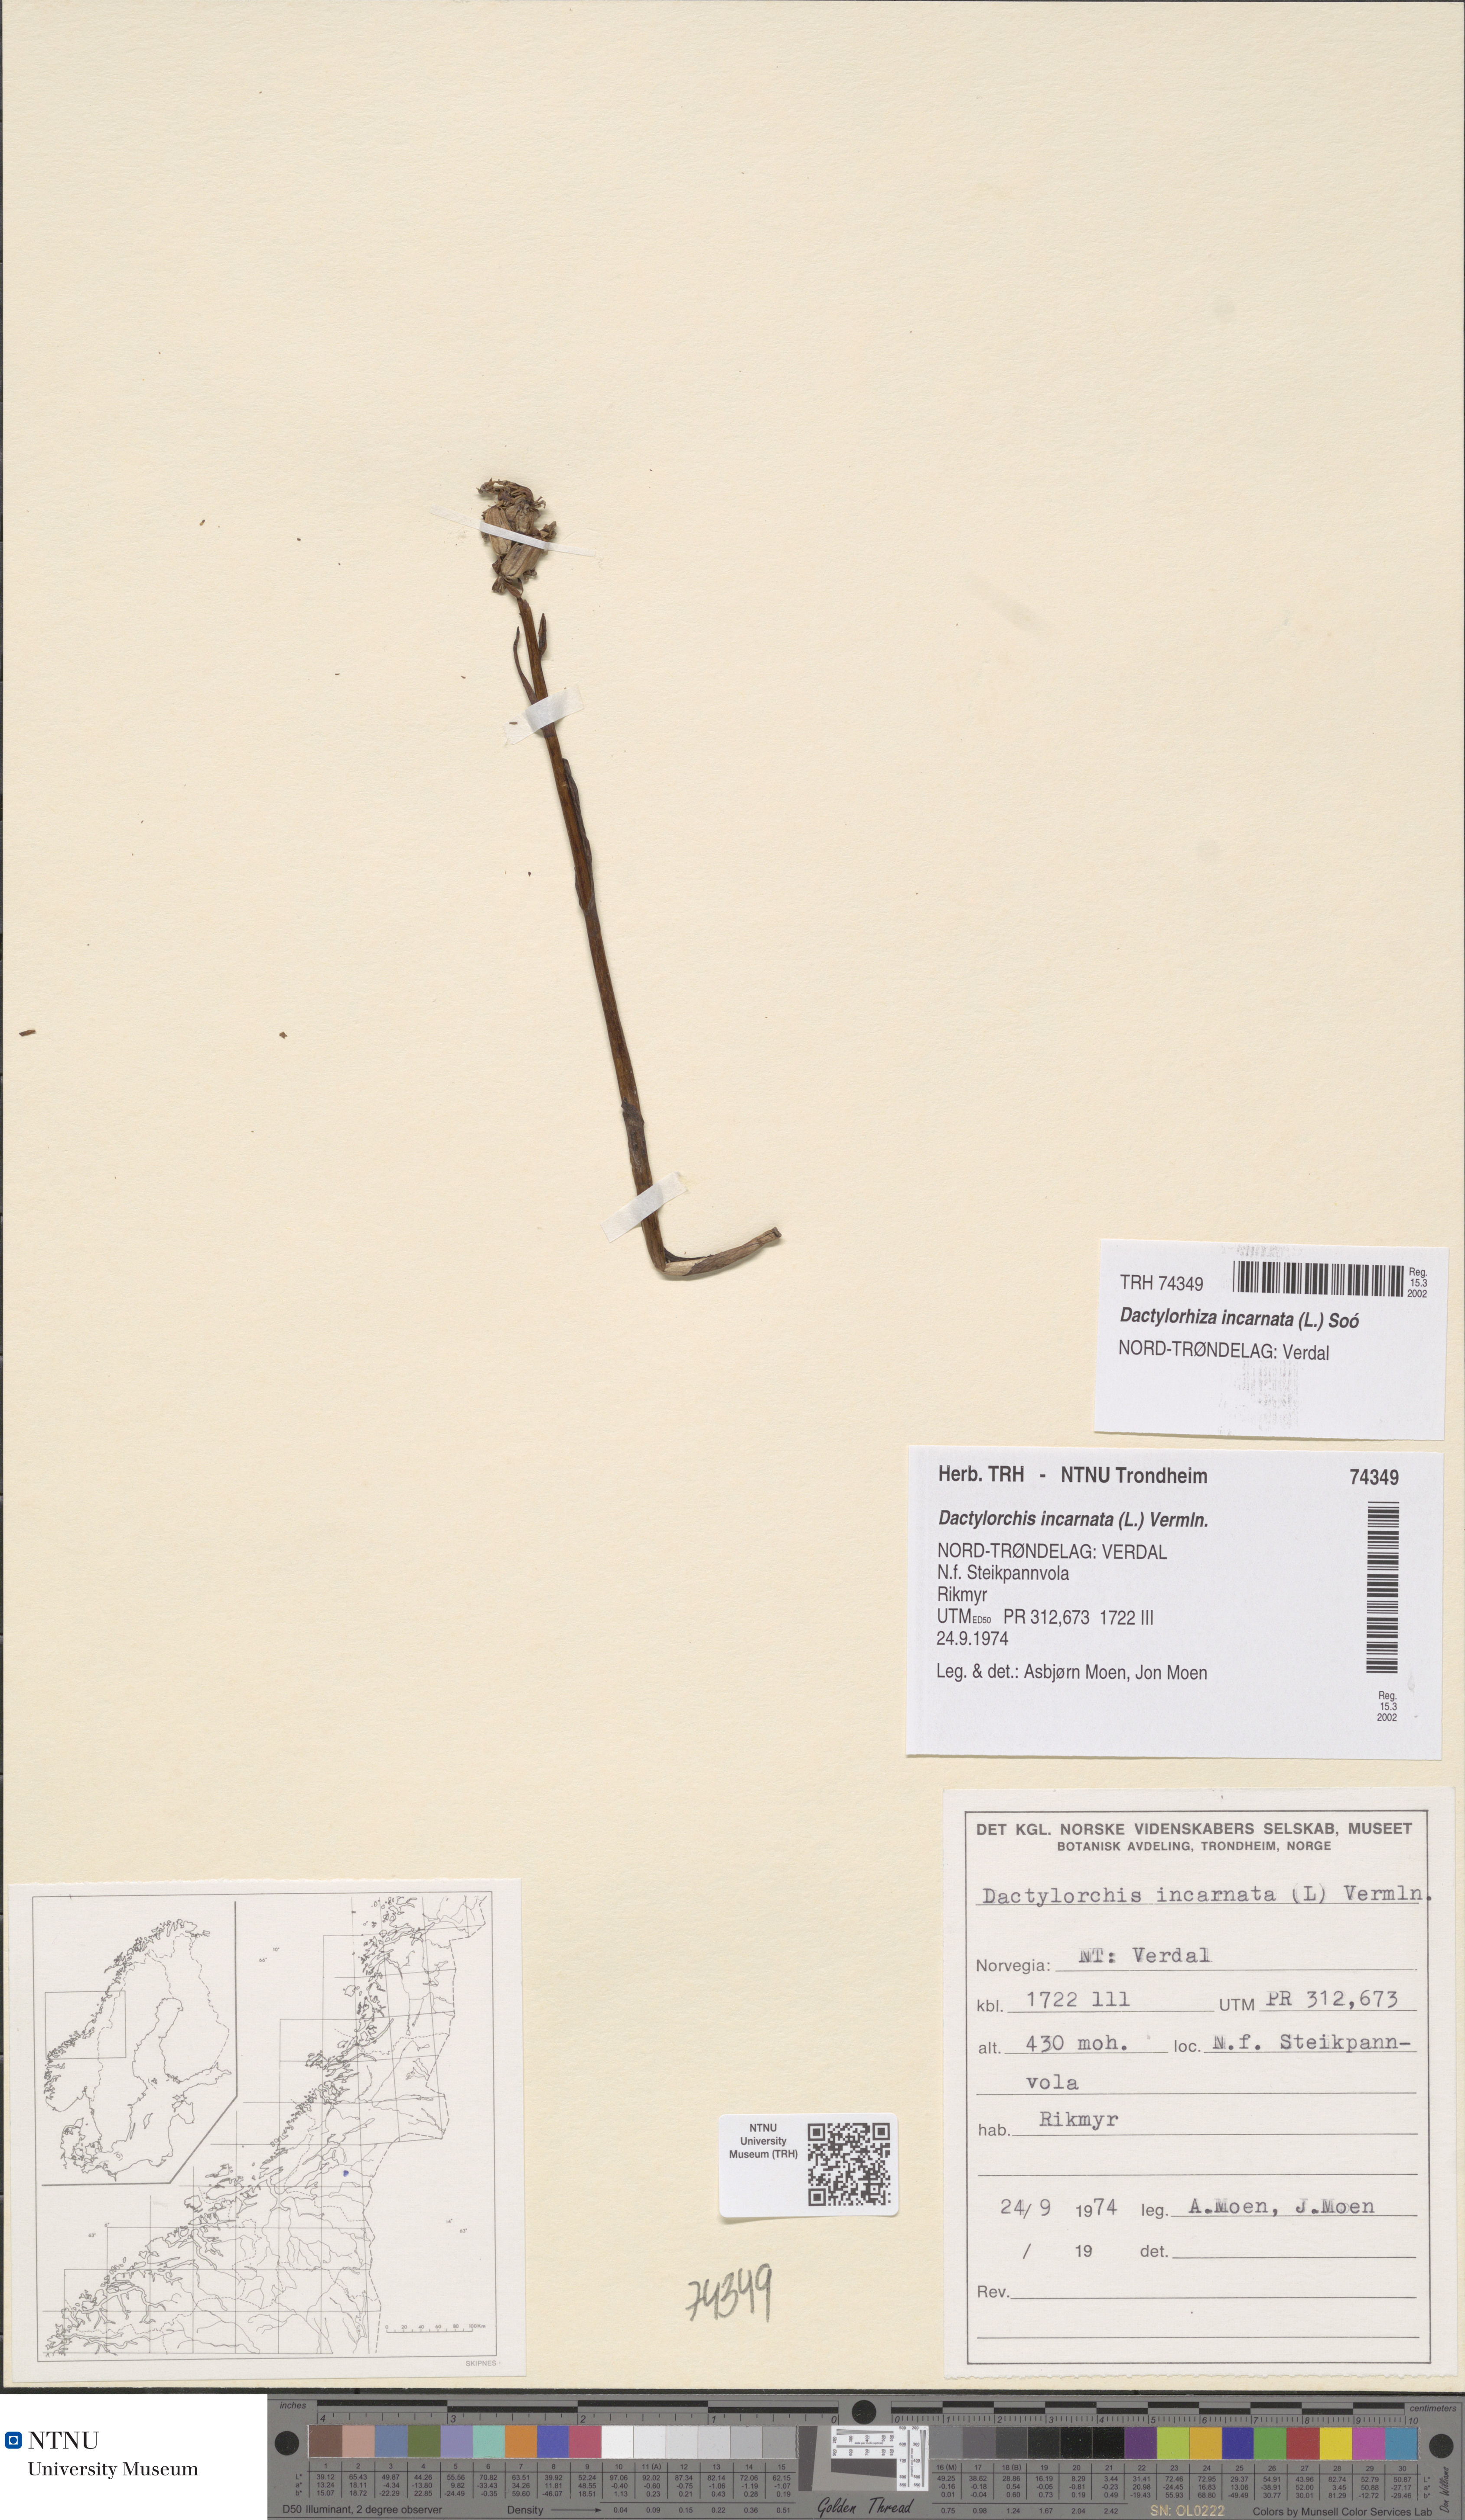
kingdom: Plantae
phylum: Tracheophyta
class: Liliopsida
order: Asparagales
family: Orchidaceae
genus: Dactylorhiza
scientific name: Dactylorhiza incarnata
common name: Early marsh-orchid
